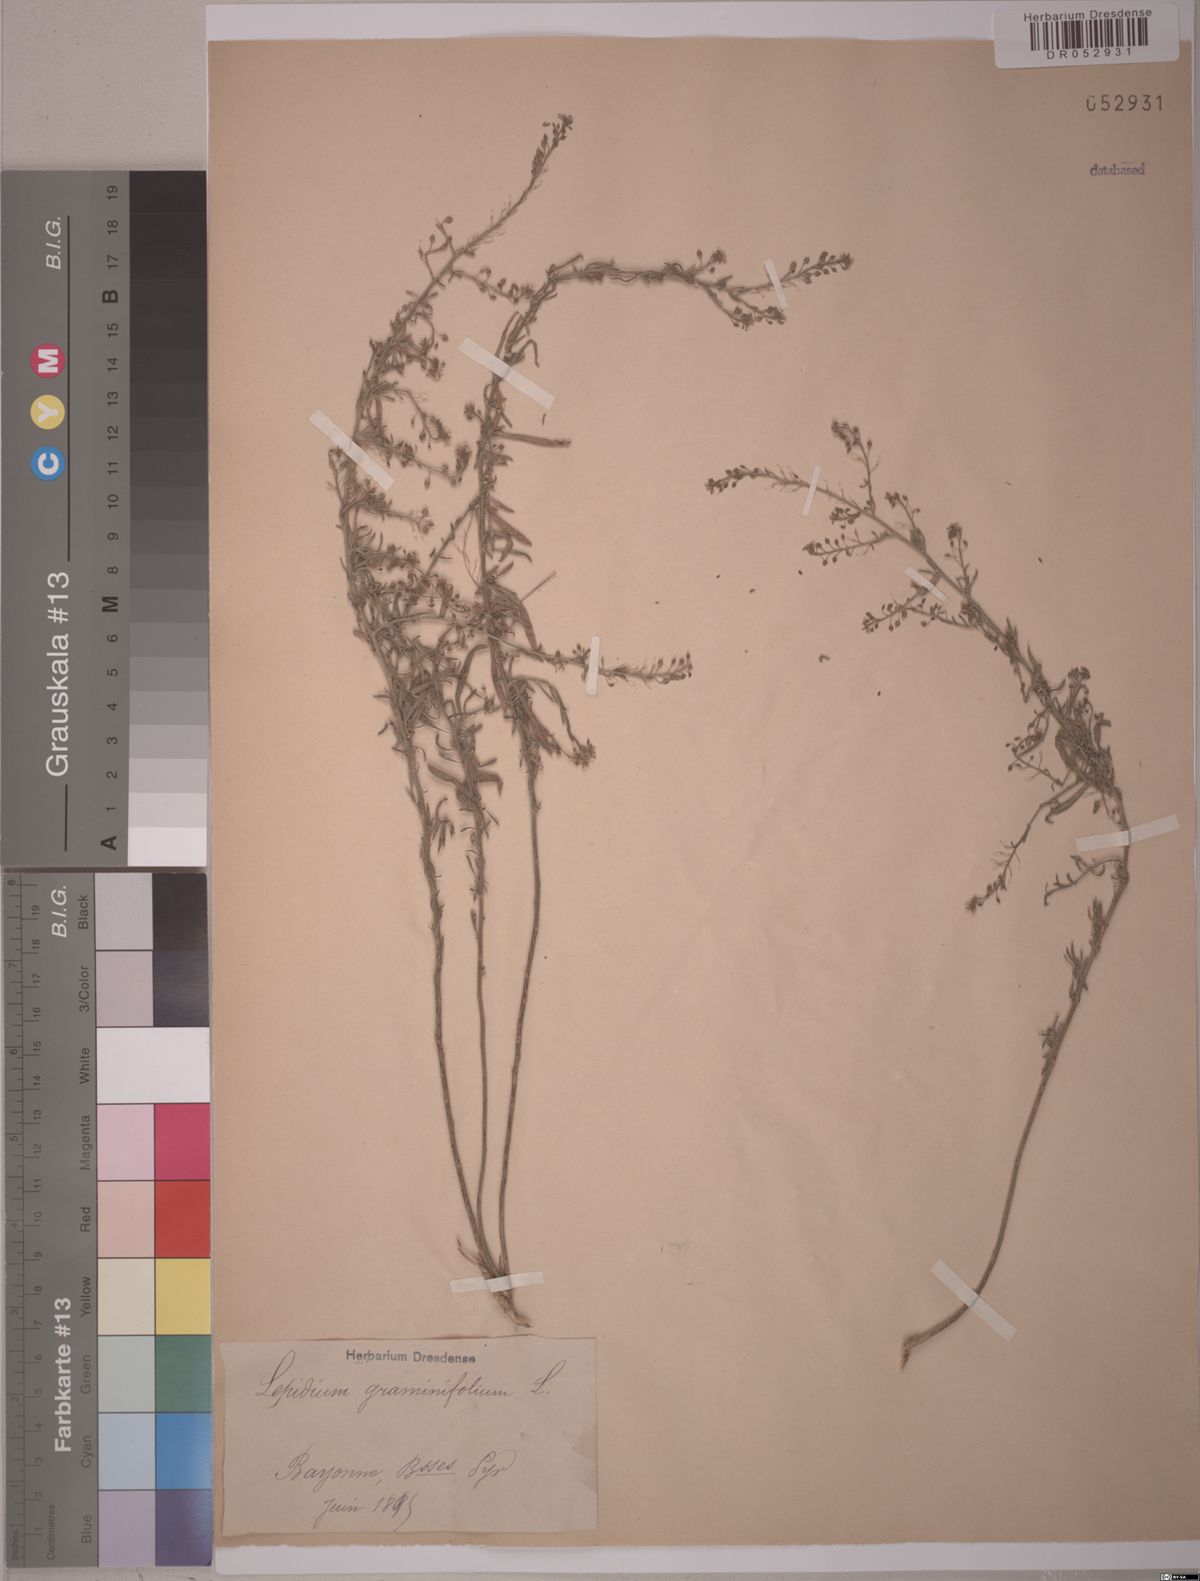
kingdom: Plantae
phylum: Tracheophyta
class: Magnoliopsida
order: Brassicales
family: Brassicaceae
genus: Lepidium
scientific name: Lepidium graminifolium
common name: Tall pepperwort
